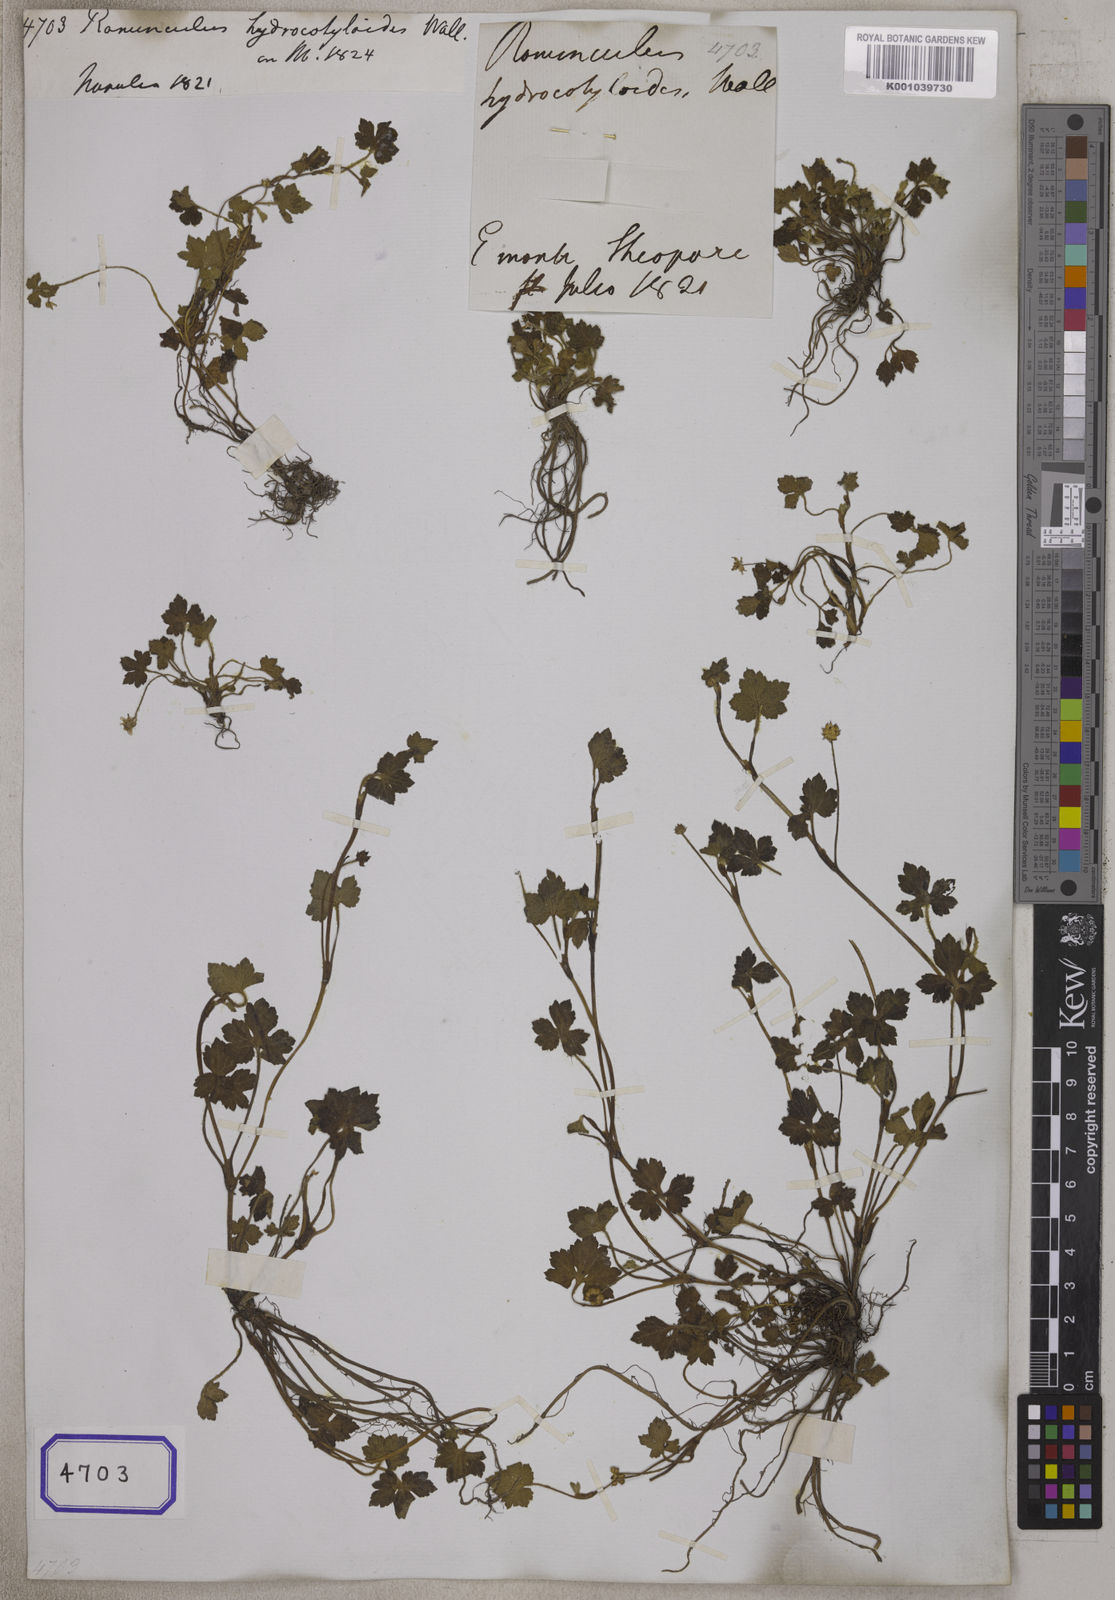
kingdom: Plantae
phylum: Tracheophyta
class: Magnoliopsida
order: Ranunculales
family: Ranunculaceae
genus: Ranunculus
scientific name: Ranunculus
